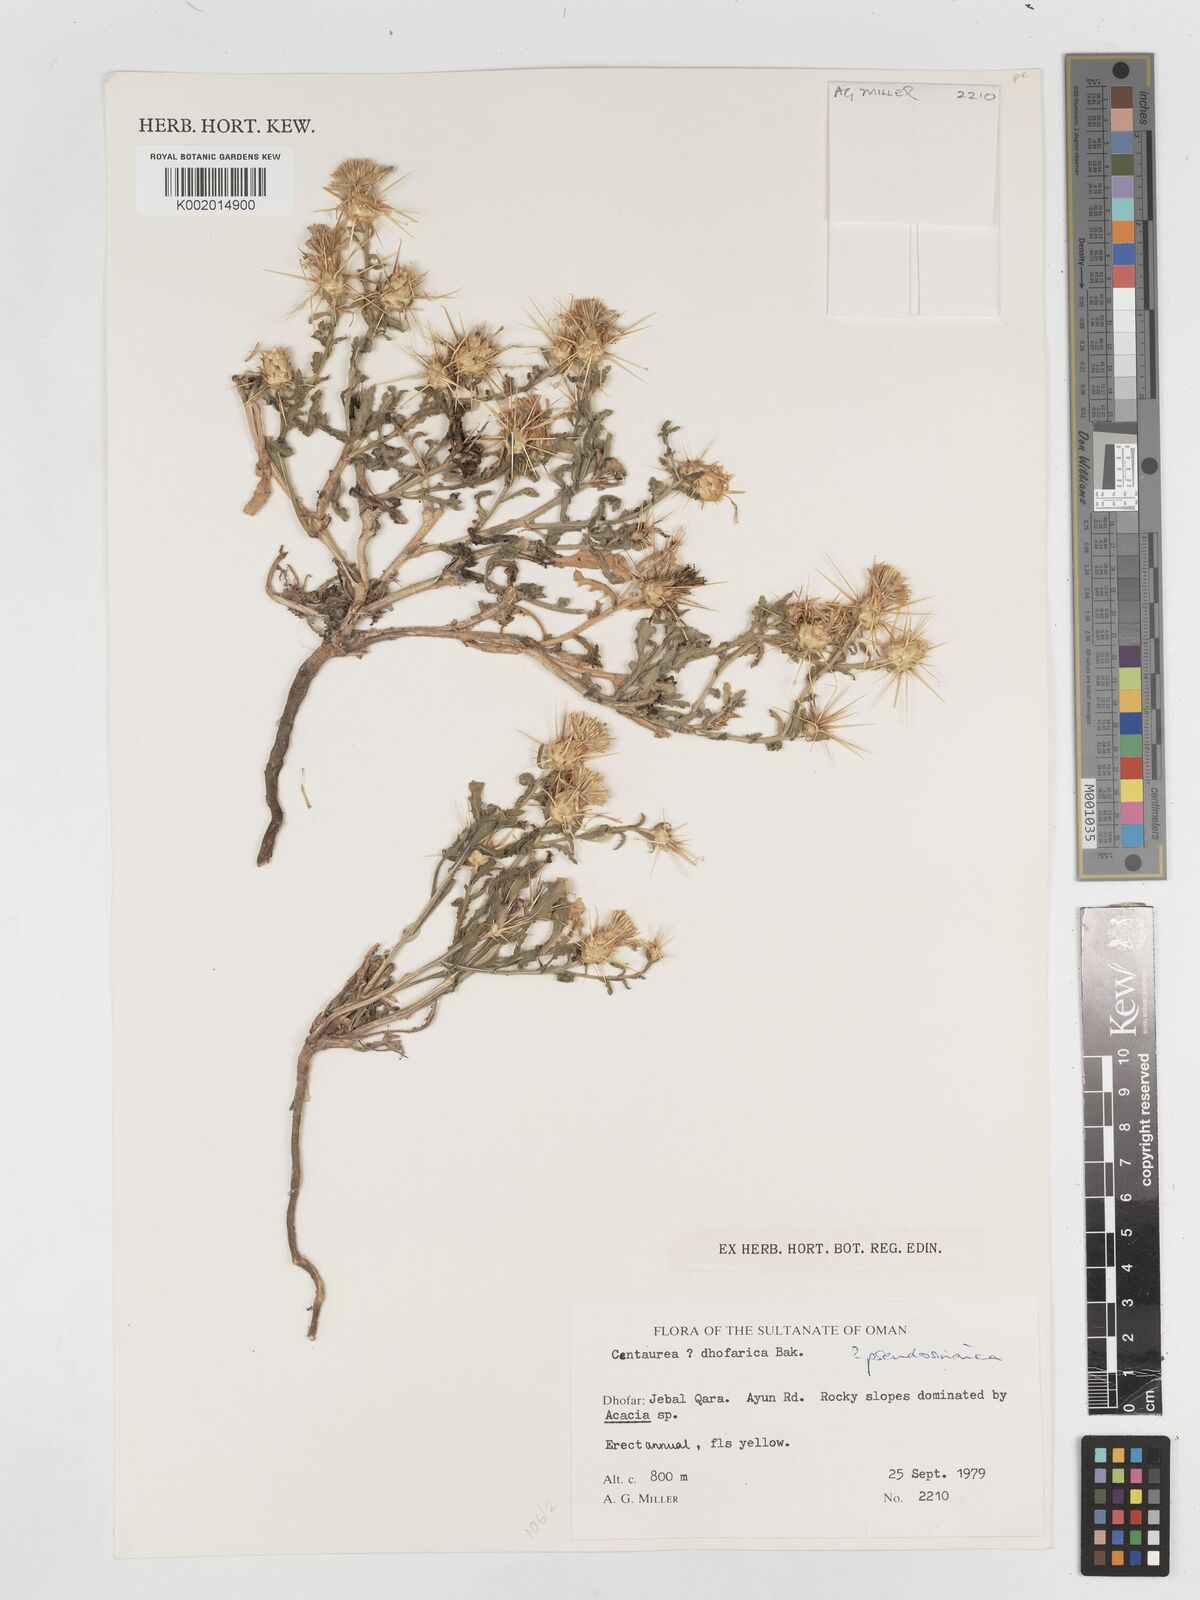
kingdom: Plantae
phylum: Tracheophyta
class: Magnoliopsida
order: Asterales
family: Asteraceae
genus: Centaurea
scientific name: Centaurea dhofarica
